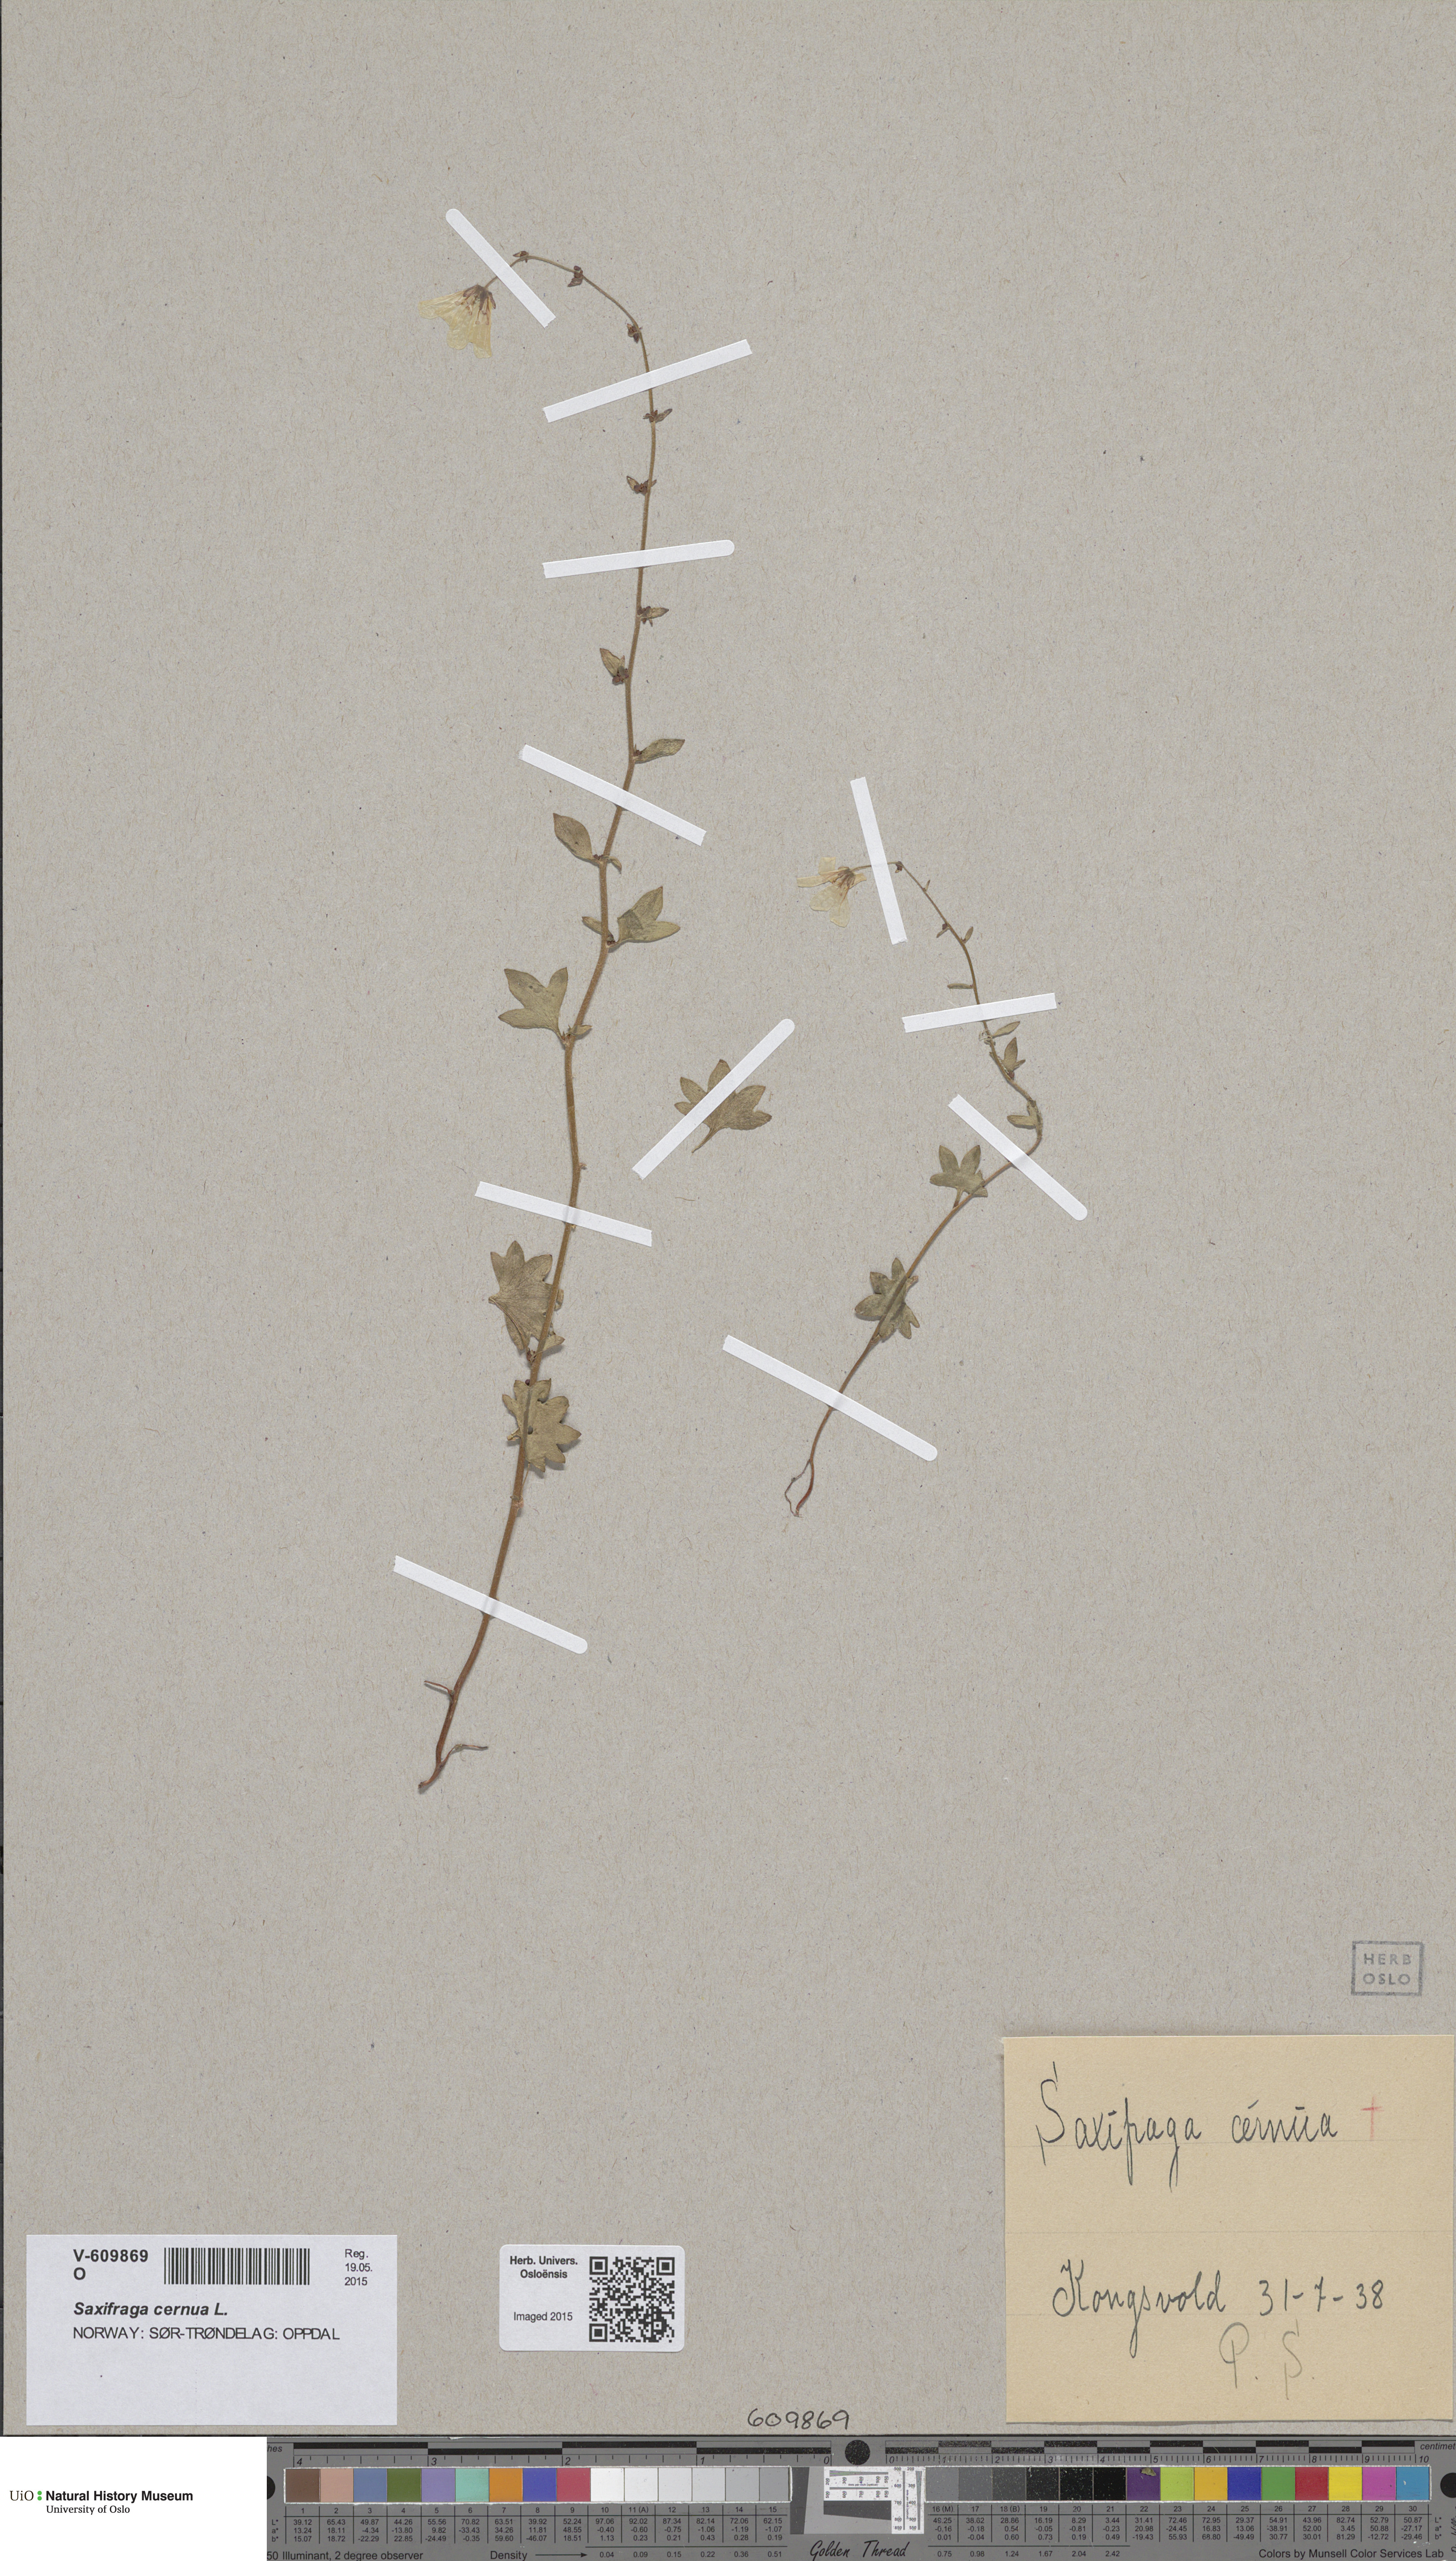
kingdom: Plantae
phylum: Tracheophyta
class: Magnoliopsida
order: Saxifragales
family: Saxifragaceae
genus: Saxifraga
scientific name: Saxifraga cernua
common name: Drooping saxifrage
